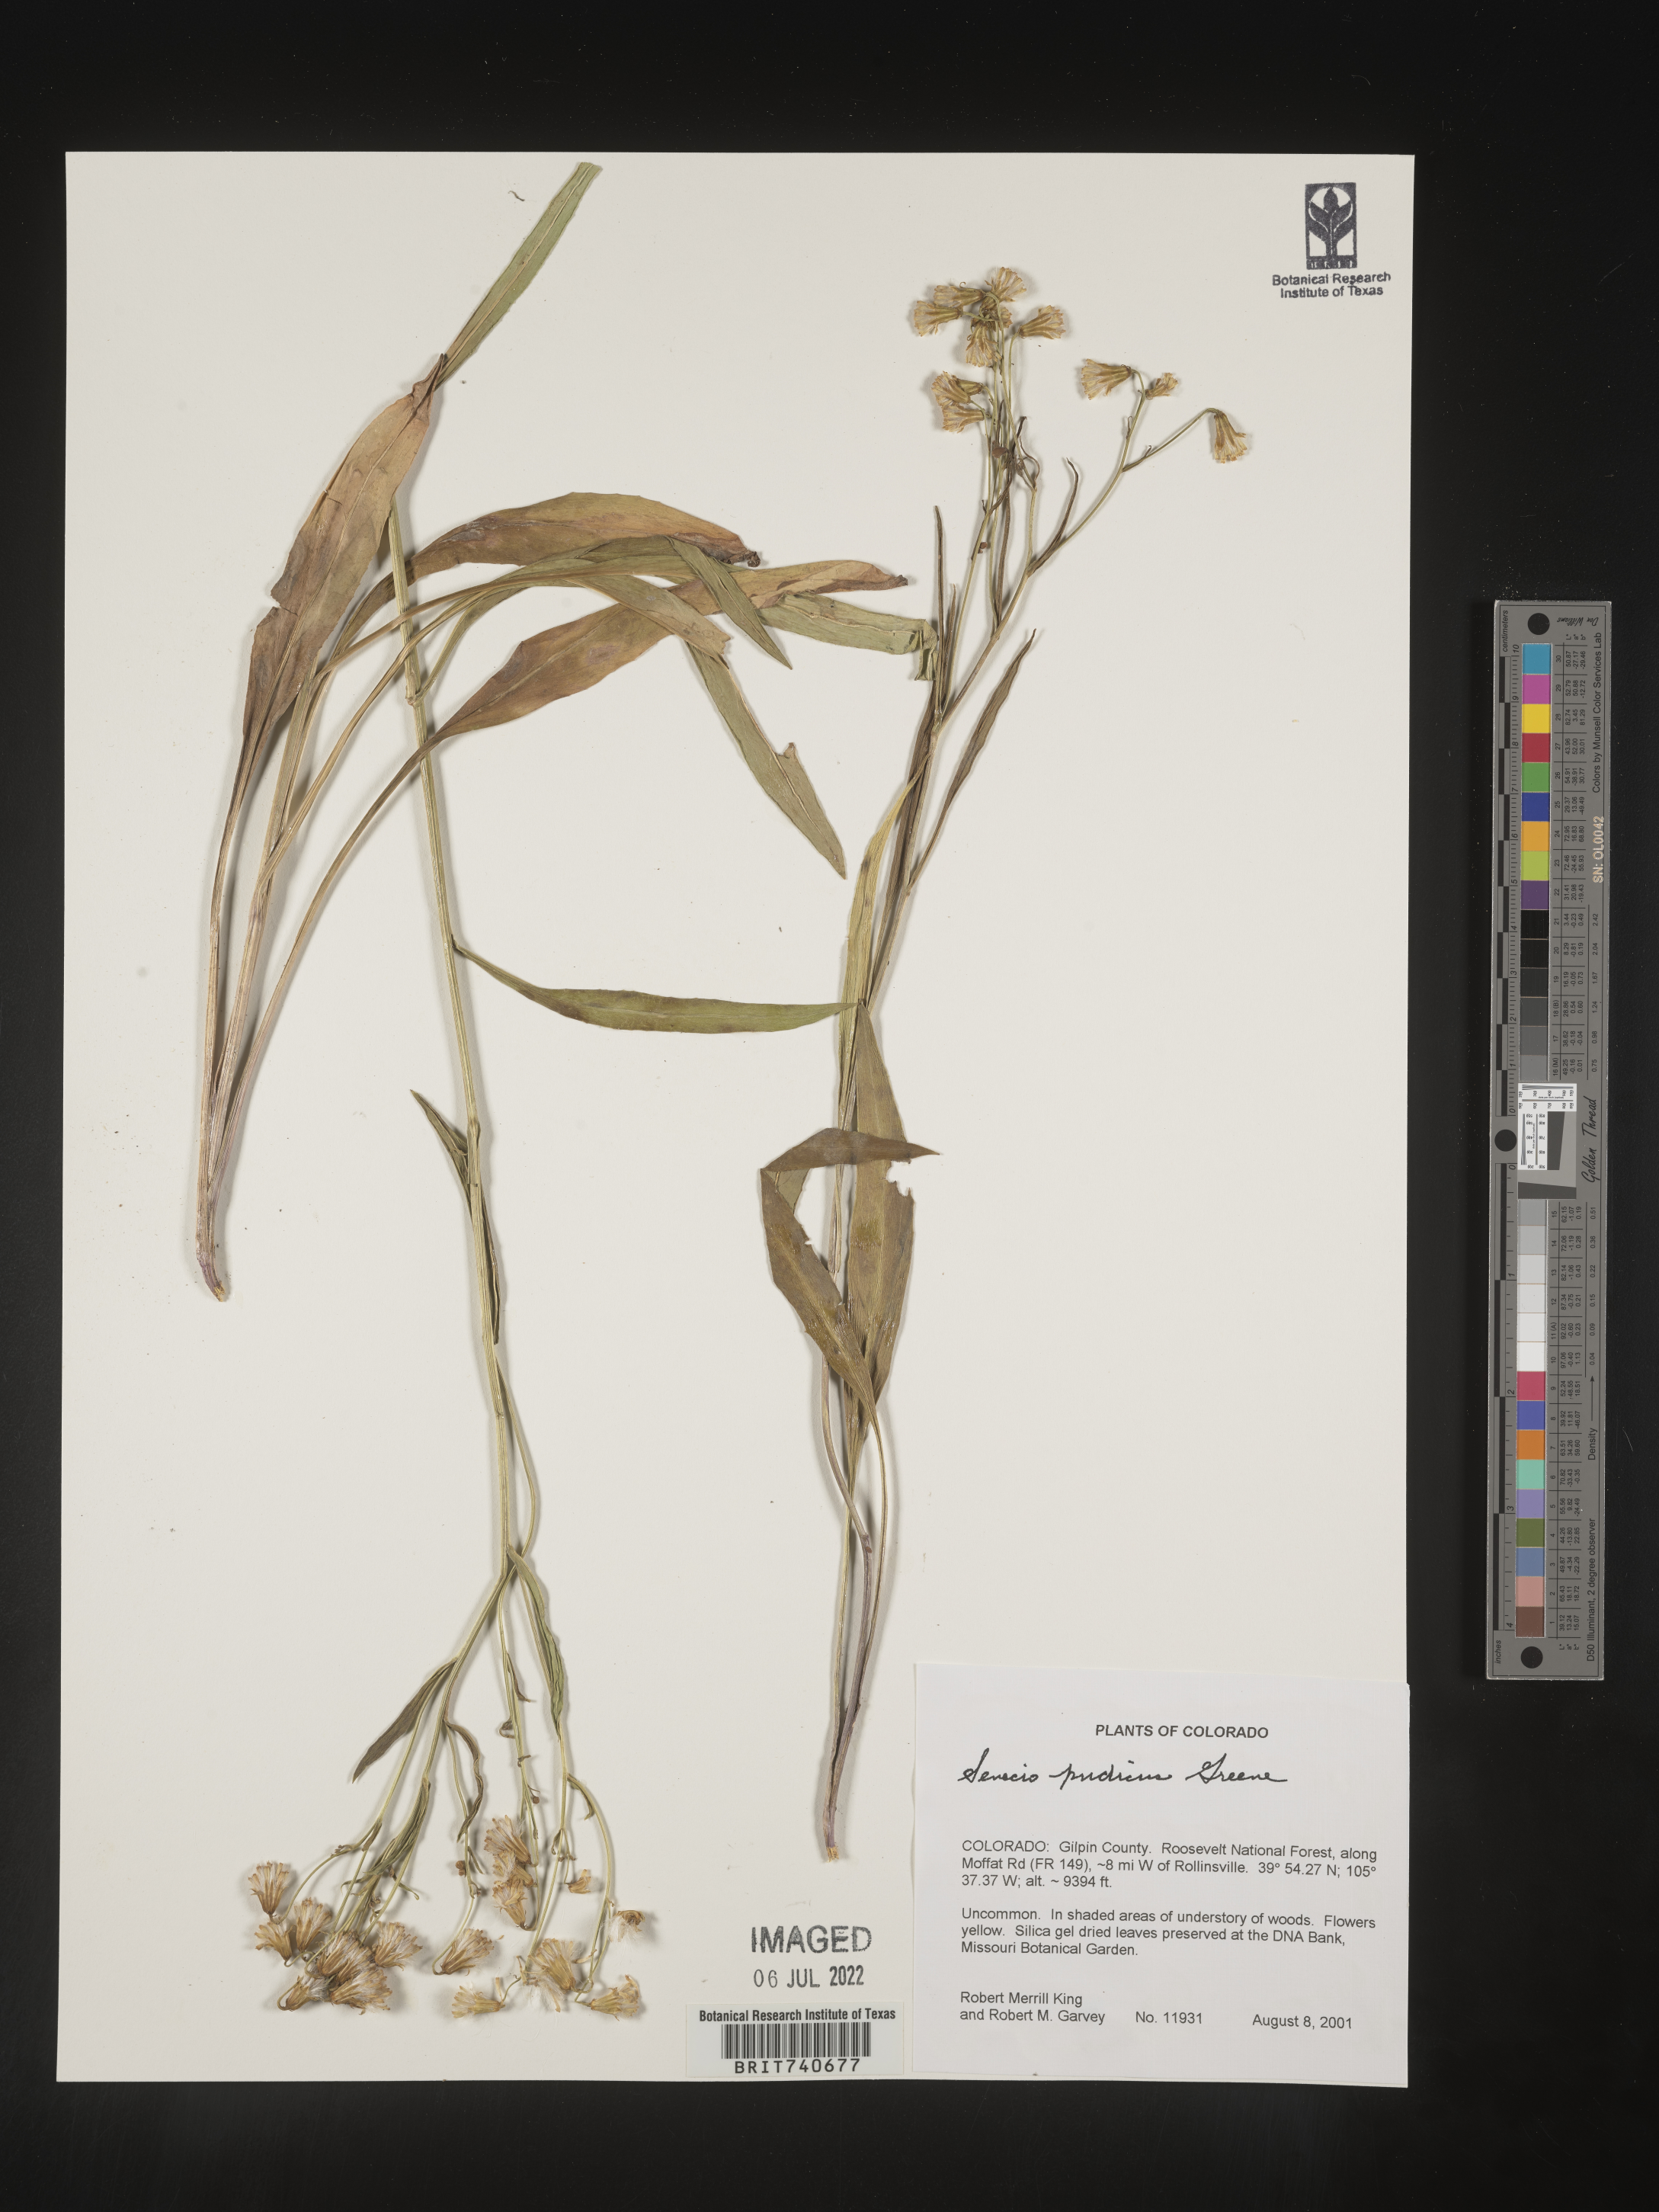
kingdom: Plantae
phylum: Tracheophyta
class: Magnoliopsida
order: Asterales
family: Asteraceae
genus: Senecio
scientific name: Senecio pudicus
